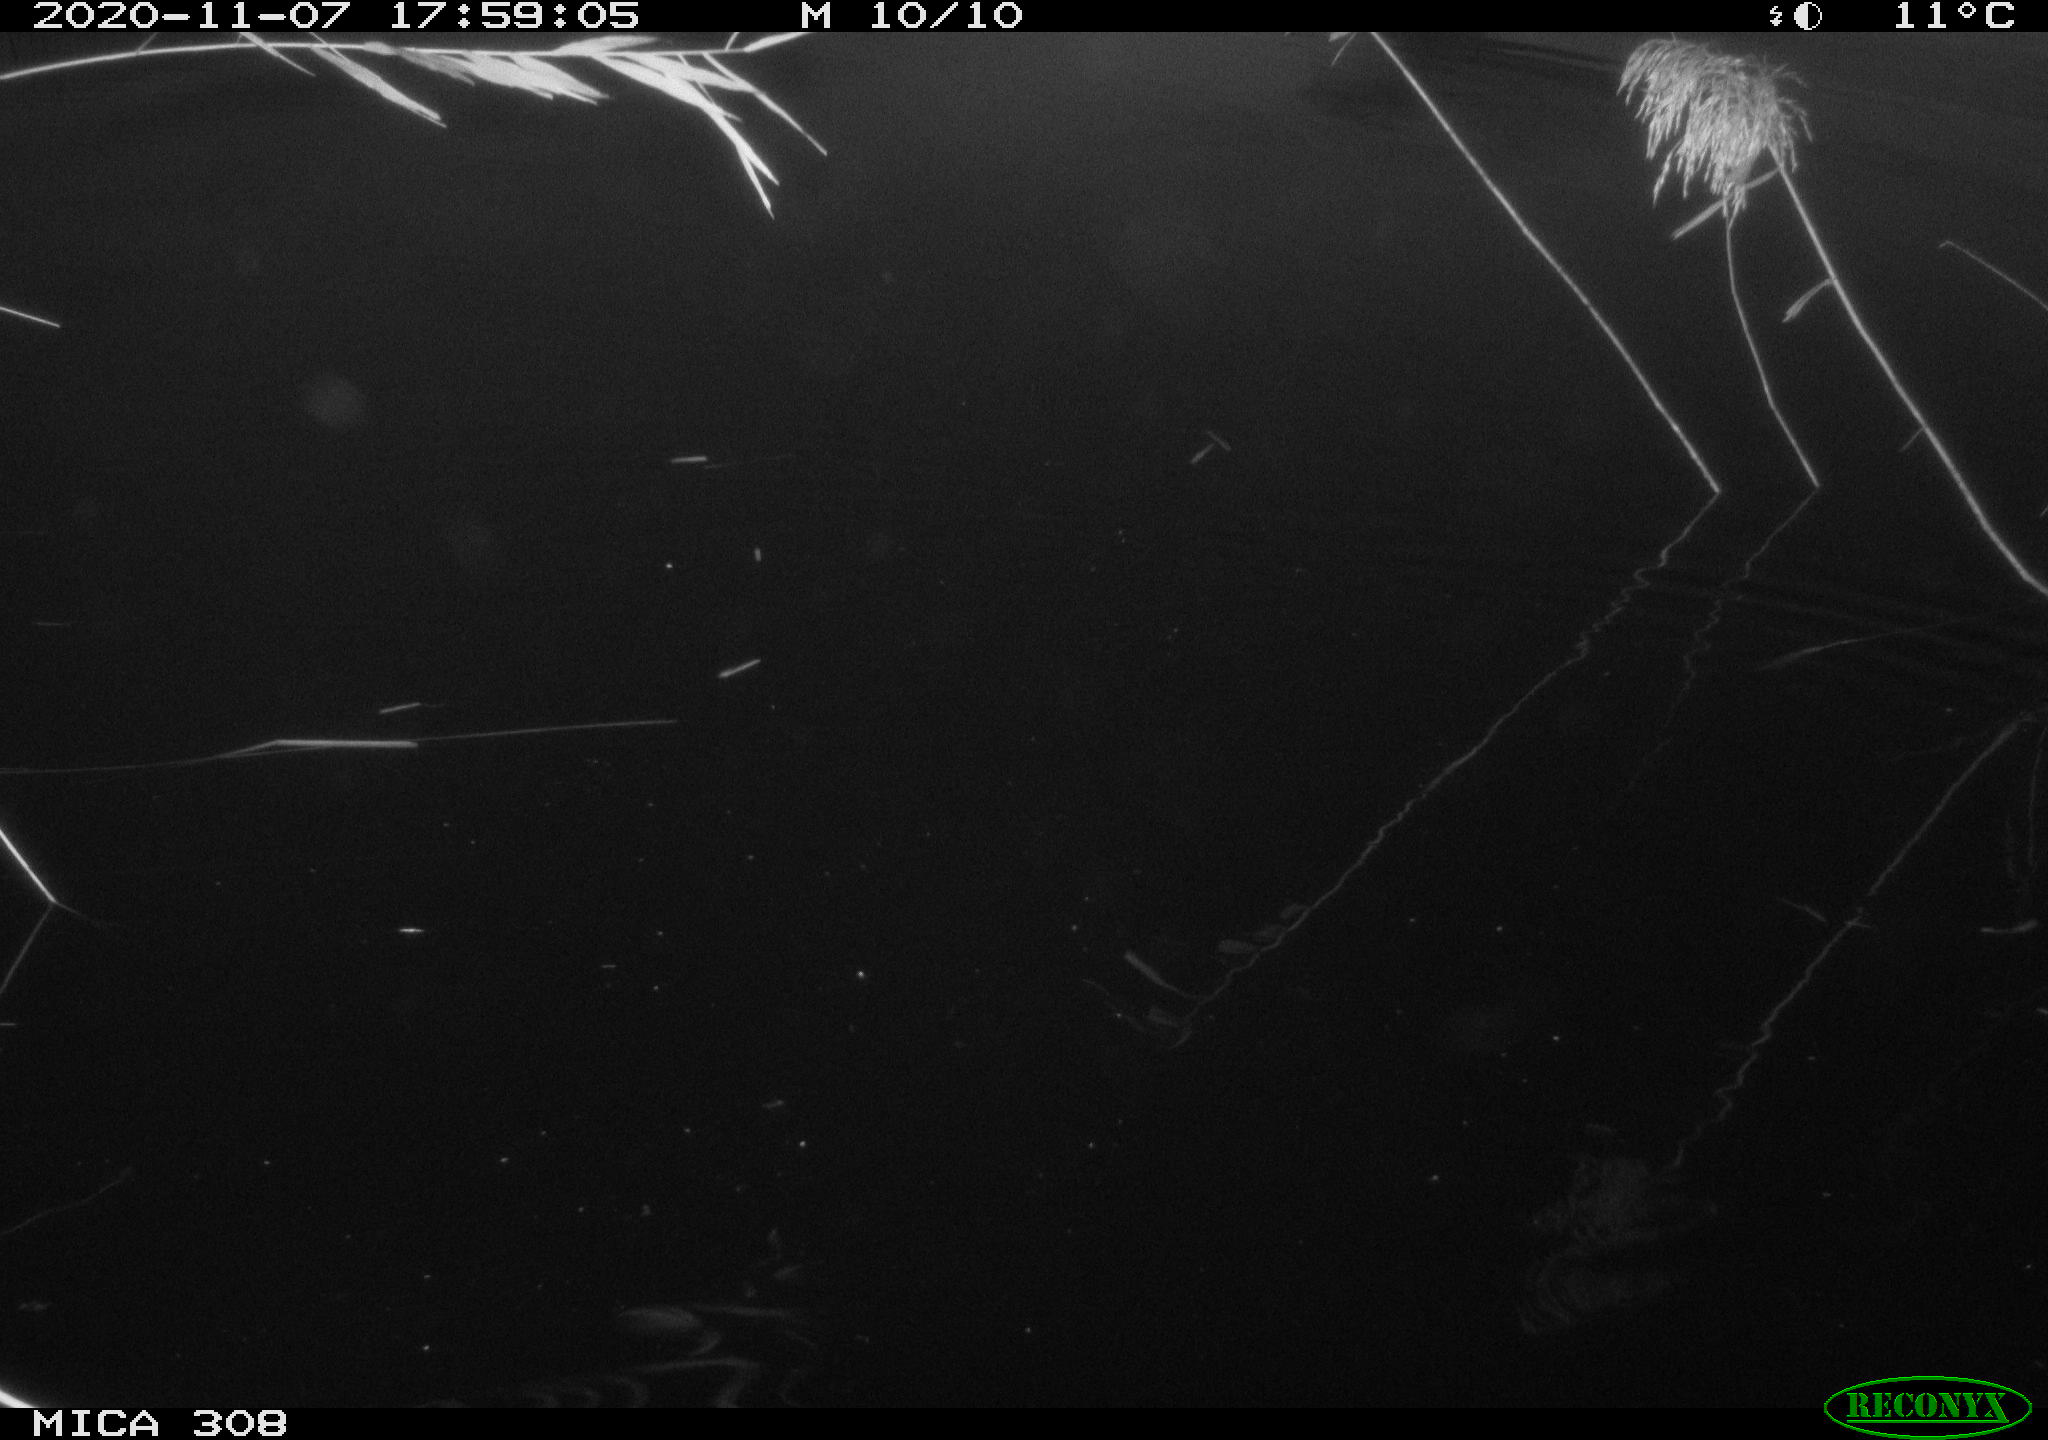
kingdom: Animalia
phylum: Chordata
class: Mammalia
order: Rodentia
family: Muridae
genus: Rattus
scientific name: Rattus norvegicus
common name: Brown rat
